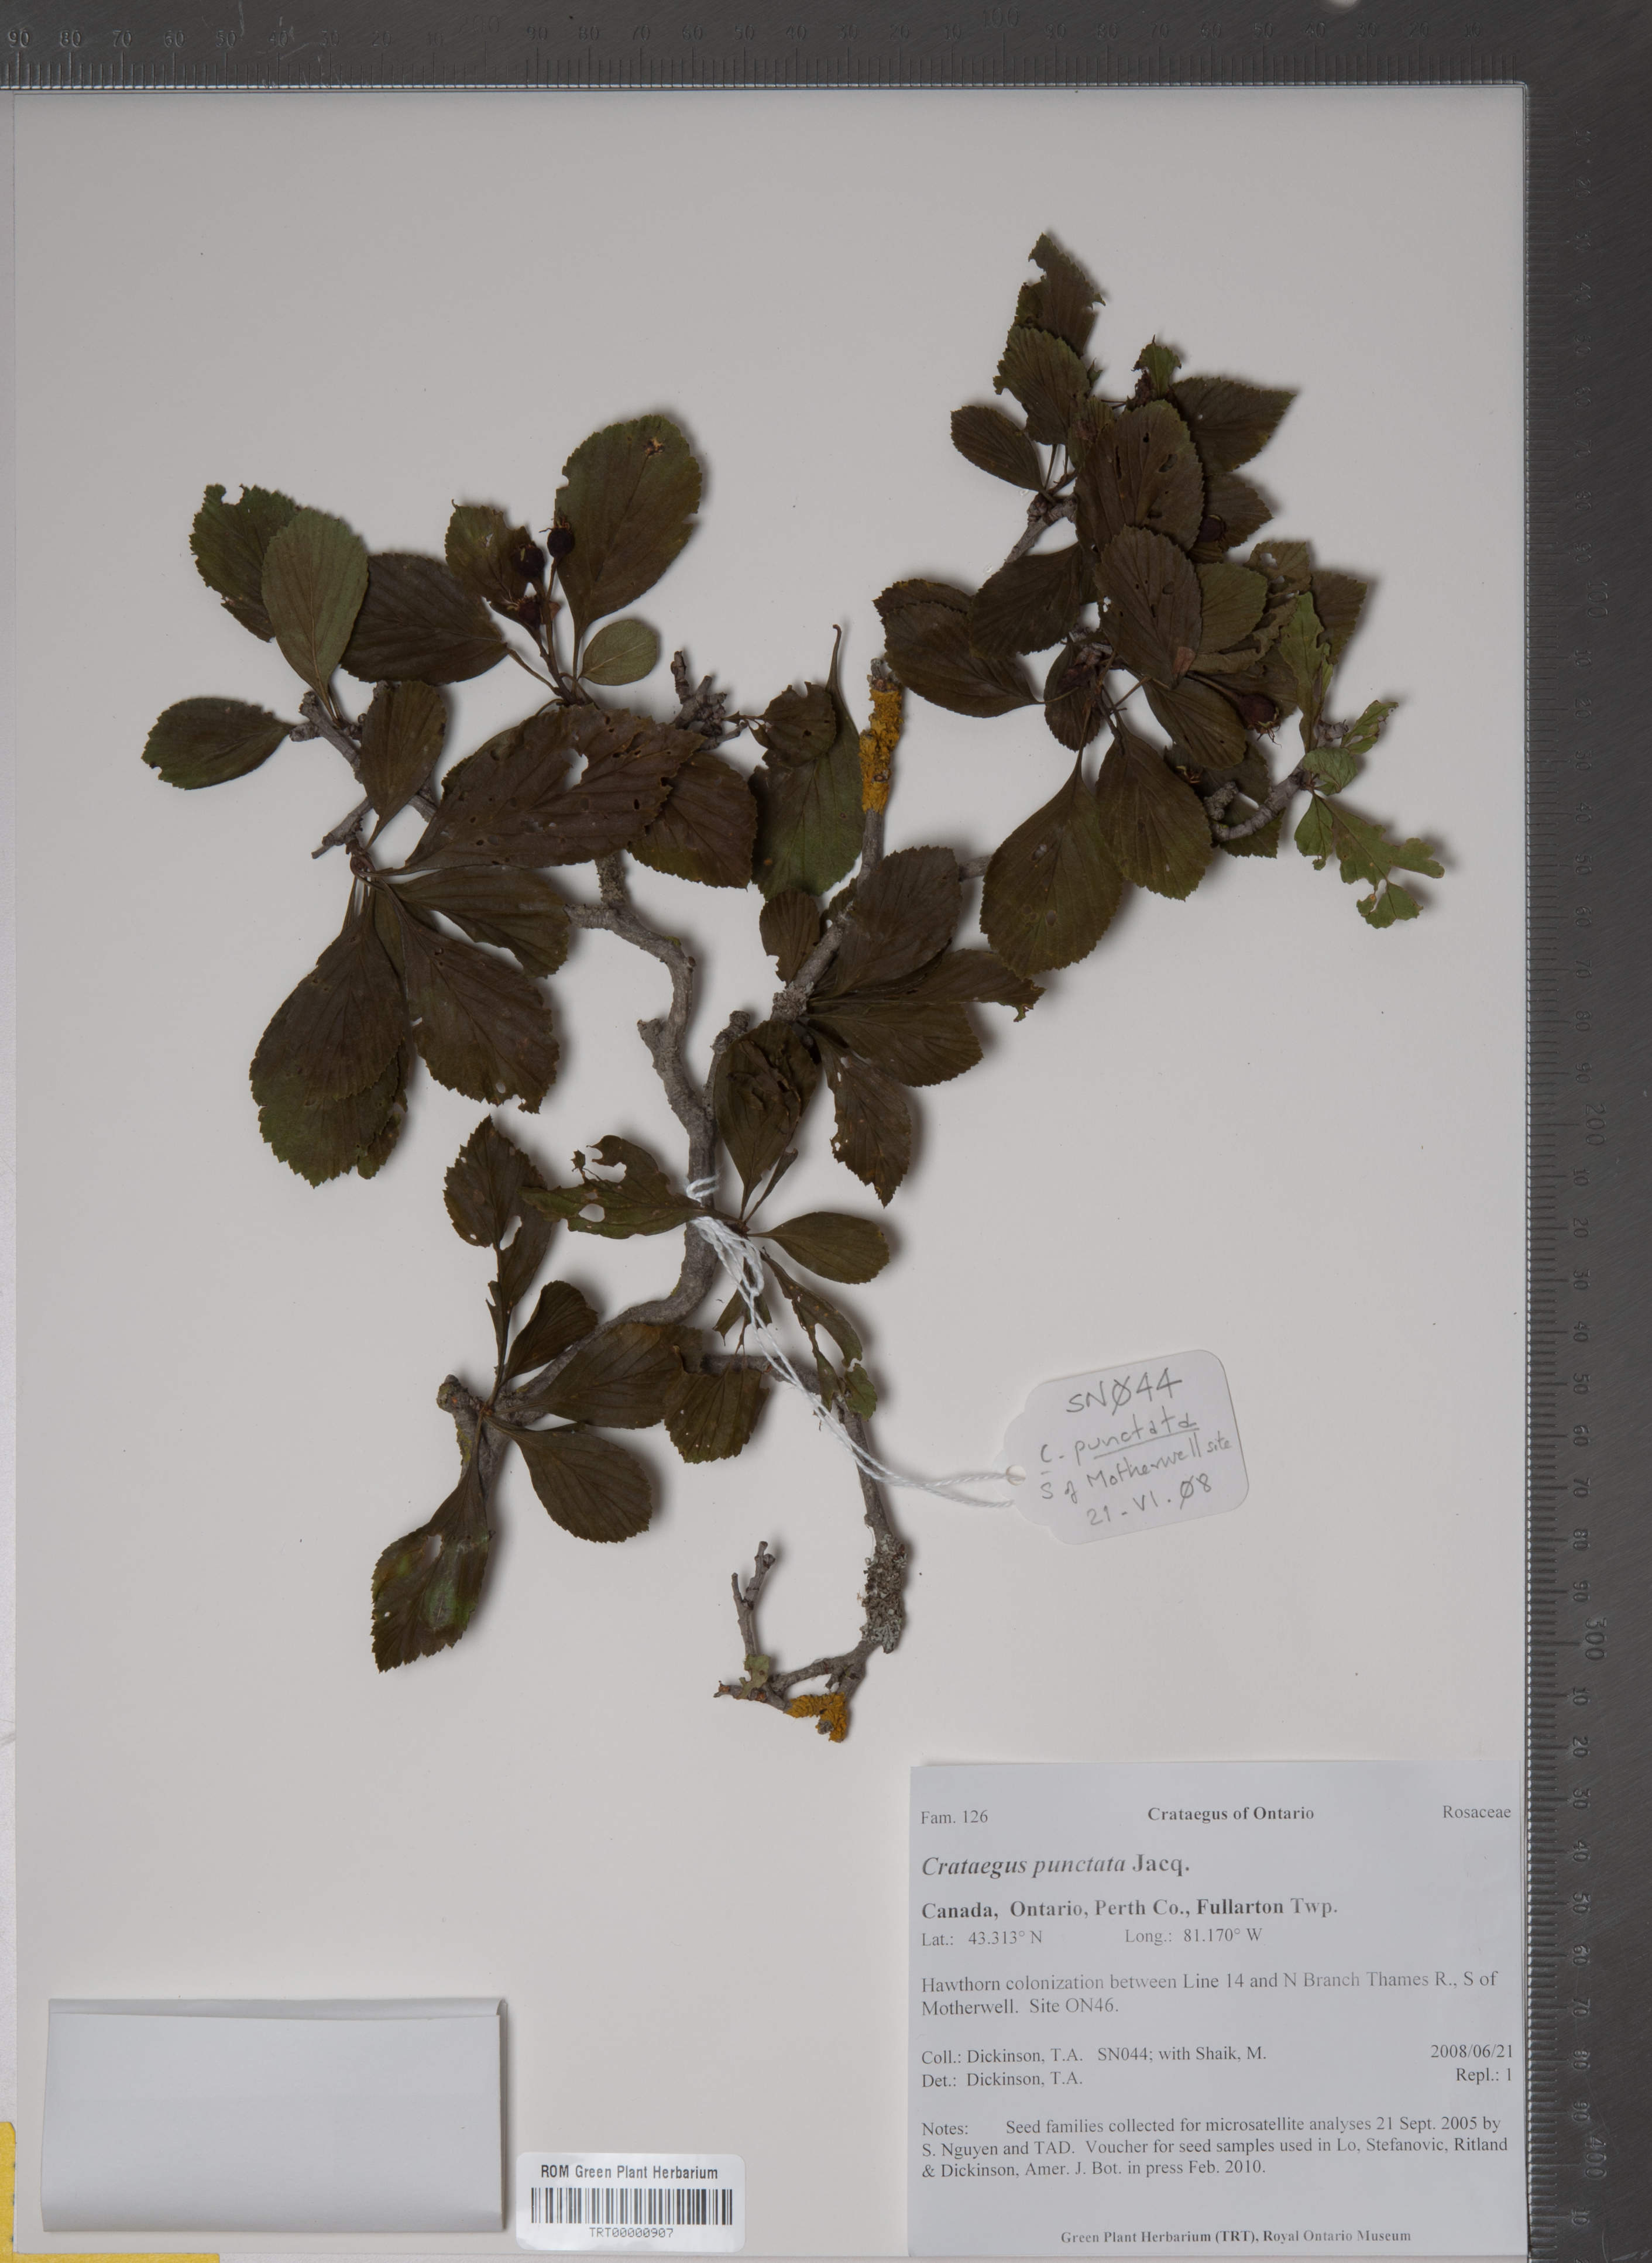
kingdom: Plantae
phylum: Tracheophyta
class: Magnoliopsida
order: Rosales
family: Rosaceae
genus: Crataegus
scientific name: Crataegus punctata
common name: Dotted hawthorn
